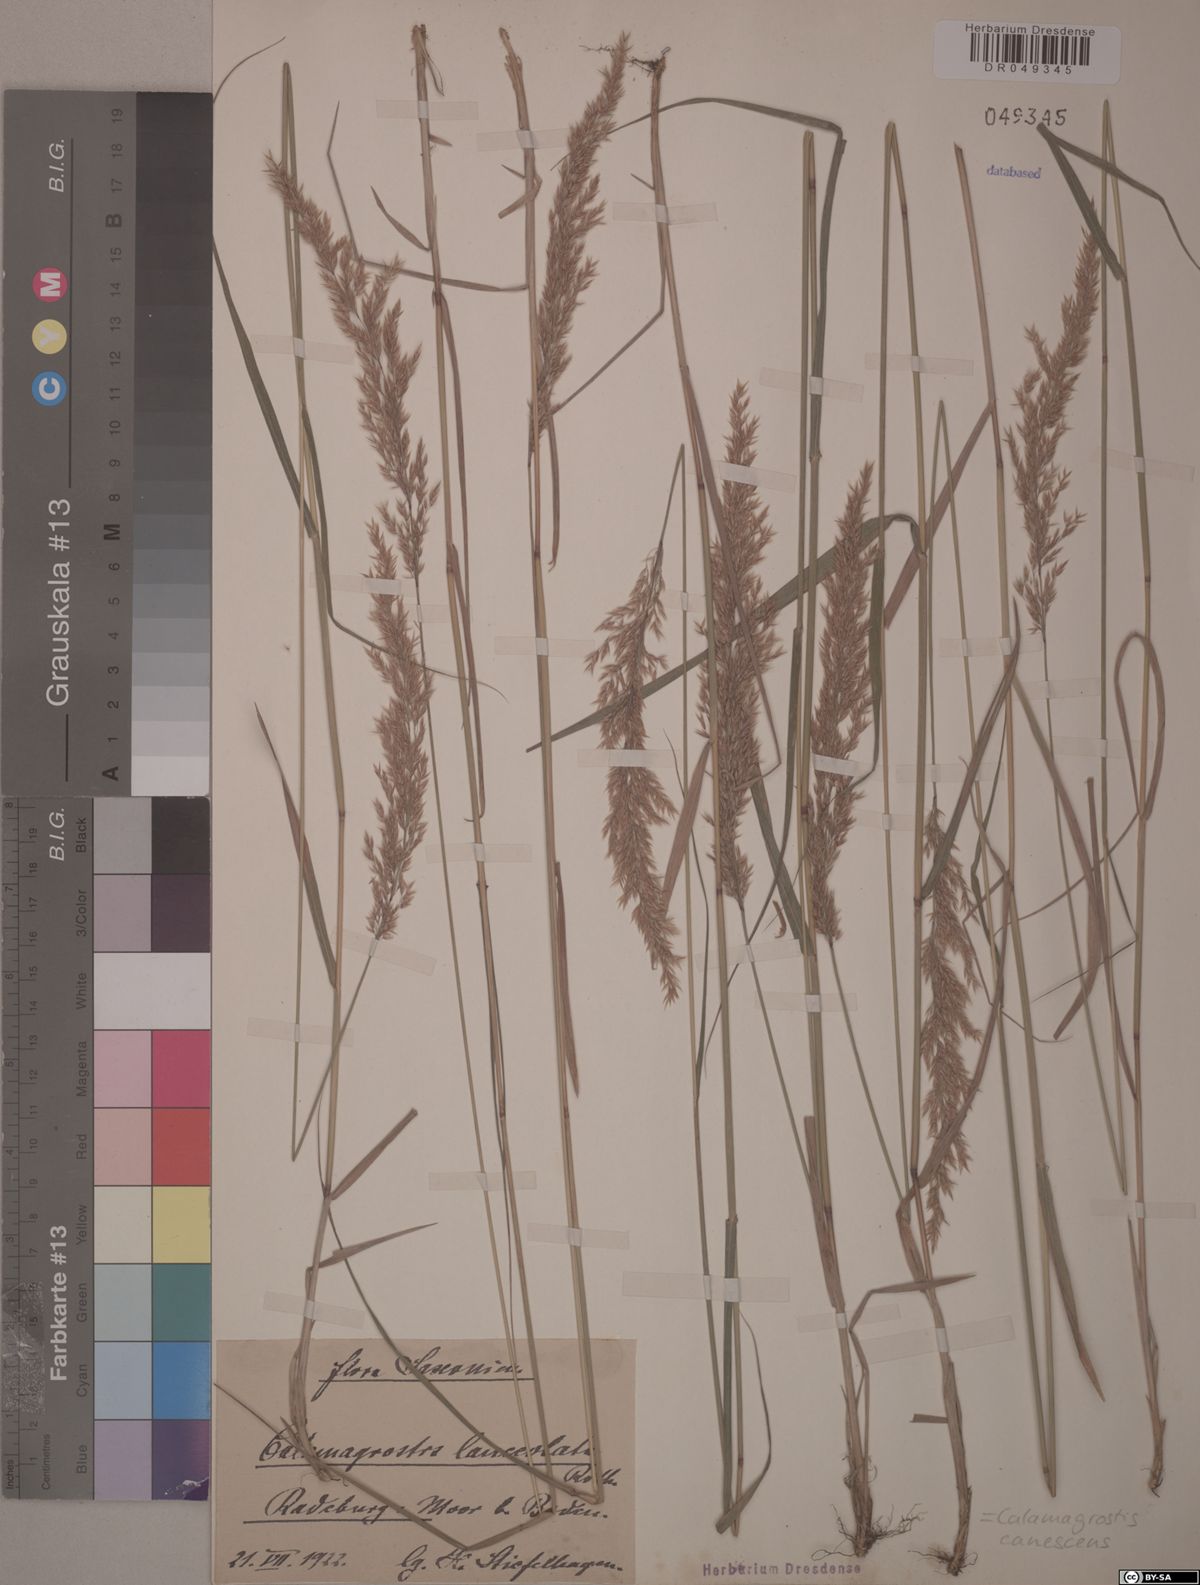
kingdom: Plantae
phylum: Tracheophyta
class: Liliopsida
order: Poales
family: Poaceae
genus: Calamagrostis
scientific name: Calamagrostis canescens
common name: Purple small-reed
